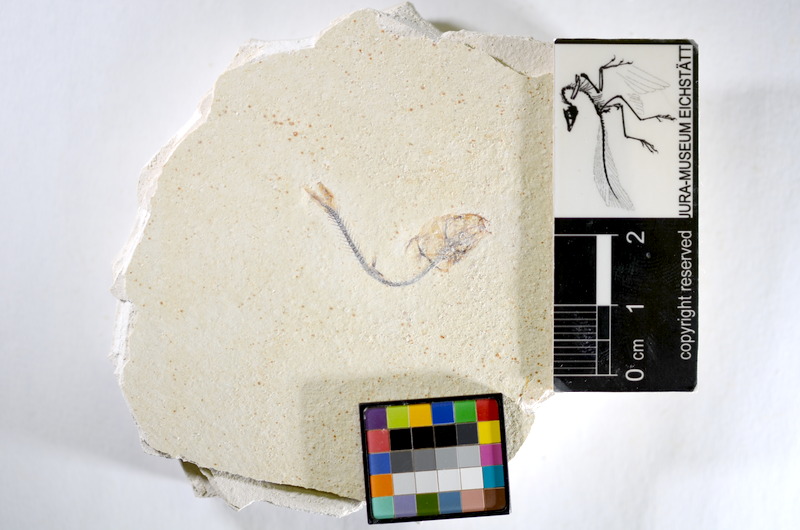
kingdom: Animalia
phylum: Chordata
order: Salmoniformes
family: Orthogonikleithridae
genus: Orthogonikleithrus
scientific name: Orthogonikleithrus hoelli
